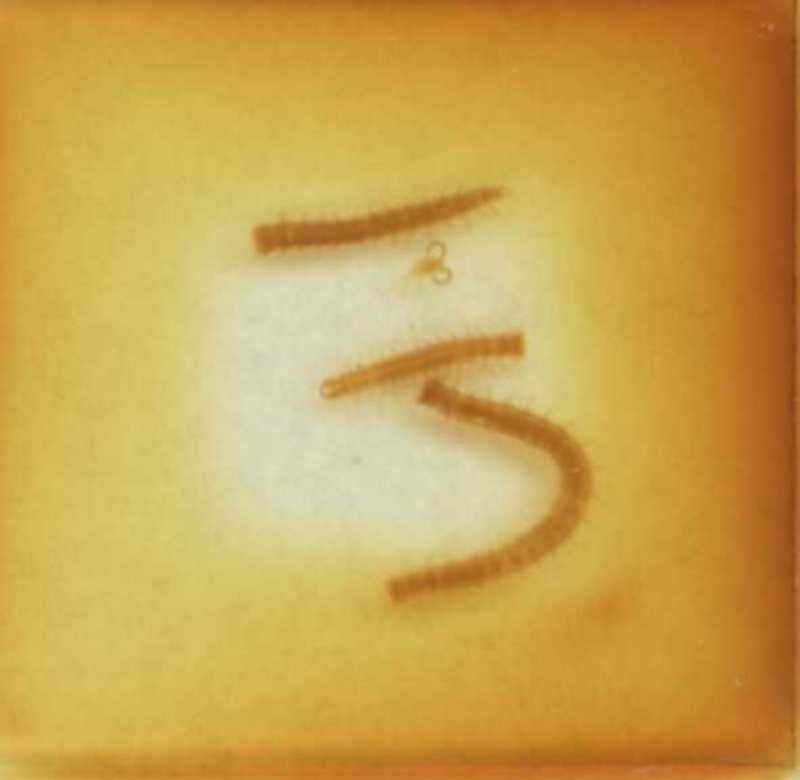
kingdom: Animalia
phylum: Arthropoda
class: Chilopoda
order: Geophilomorpha
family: Geophilidae
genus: Stenotaenia
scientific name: Stenotaenia sorrentina
